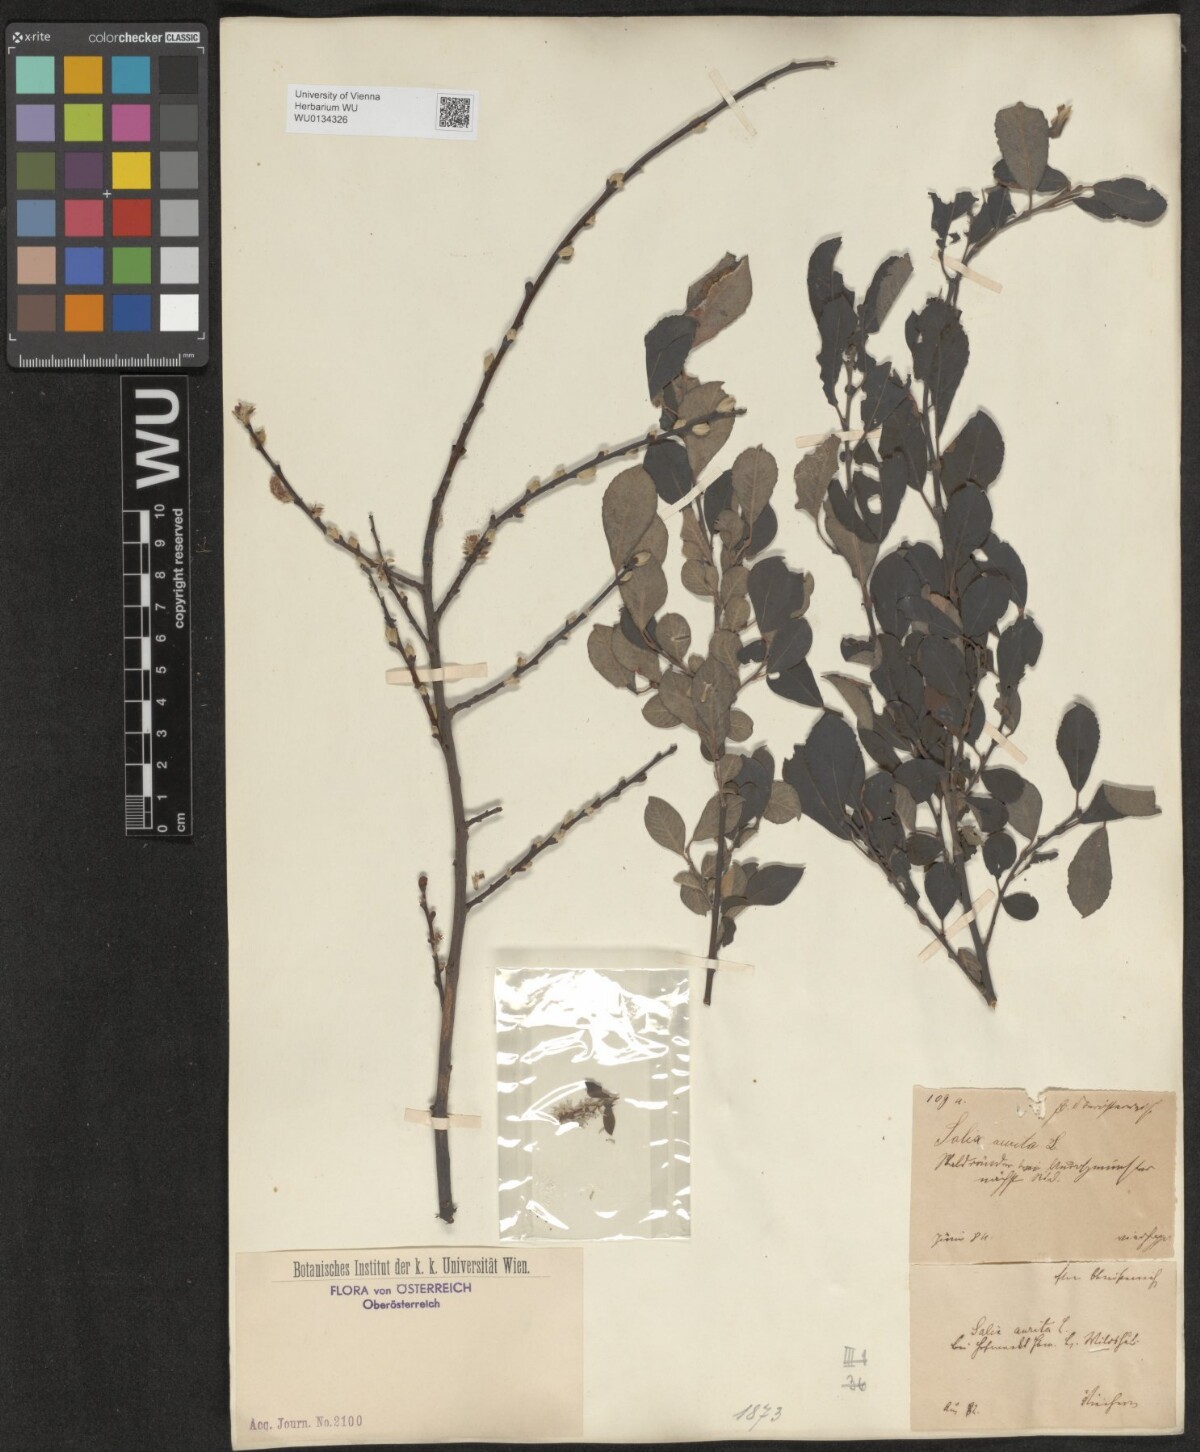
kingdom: Plantae
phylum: Tracheophyta
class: Magnoliopsida
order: Malpighiales
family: Salicaceae
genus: Salix
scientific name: Salix aurita
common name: Eared willow
